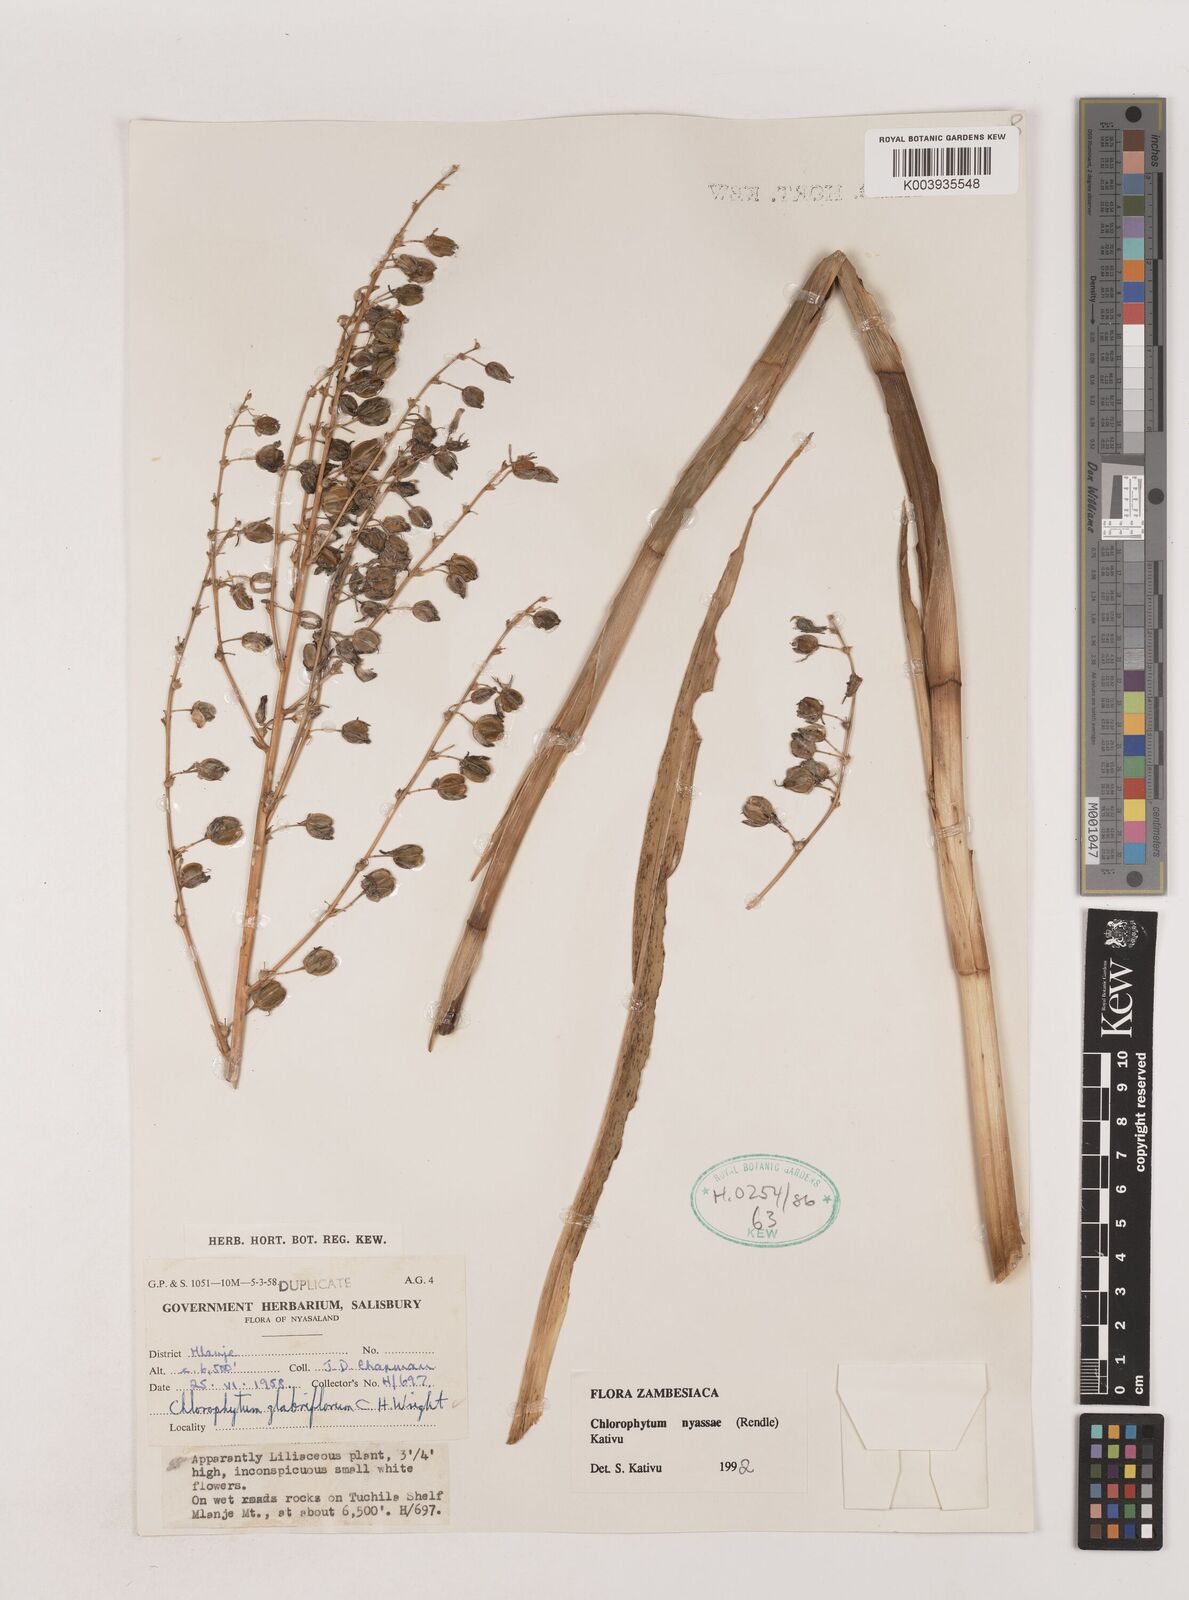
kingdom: Plantae
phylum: Tracheophyta
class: Liliopsida
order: Asparagales
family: Asparagaceae
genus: Chlorophytum
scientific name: Chlorophytum nyasae
